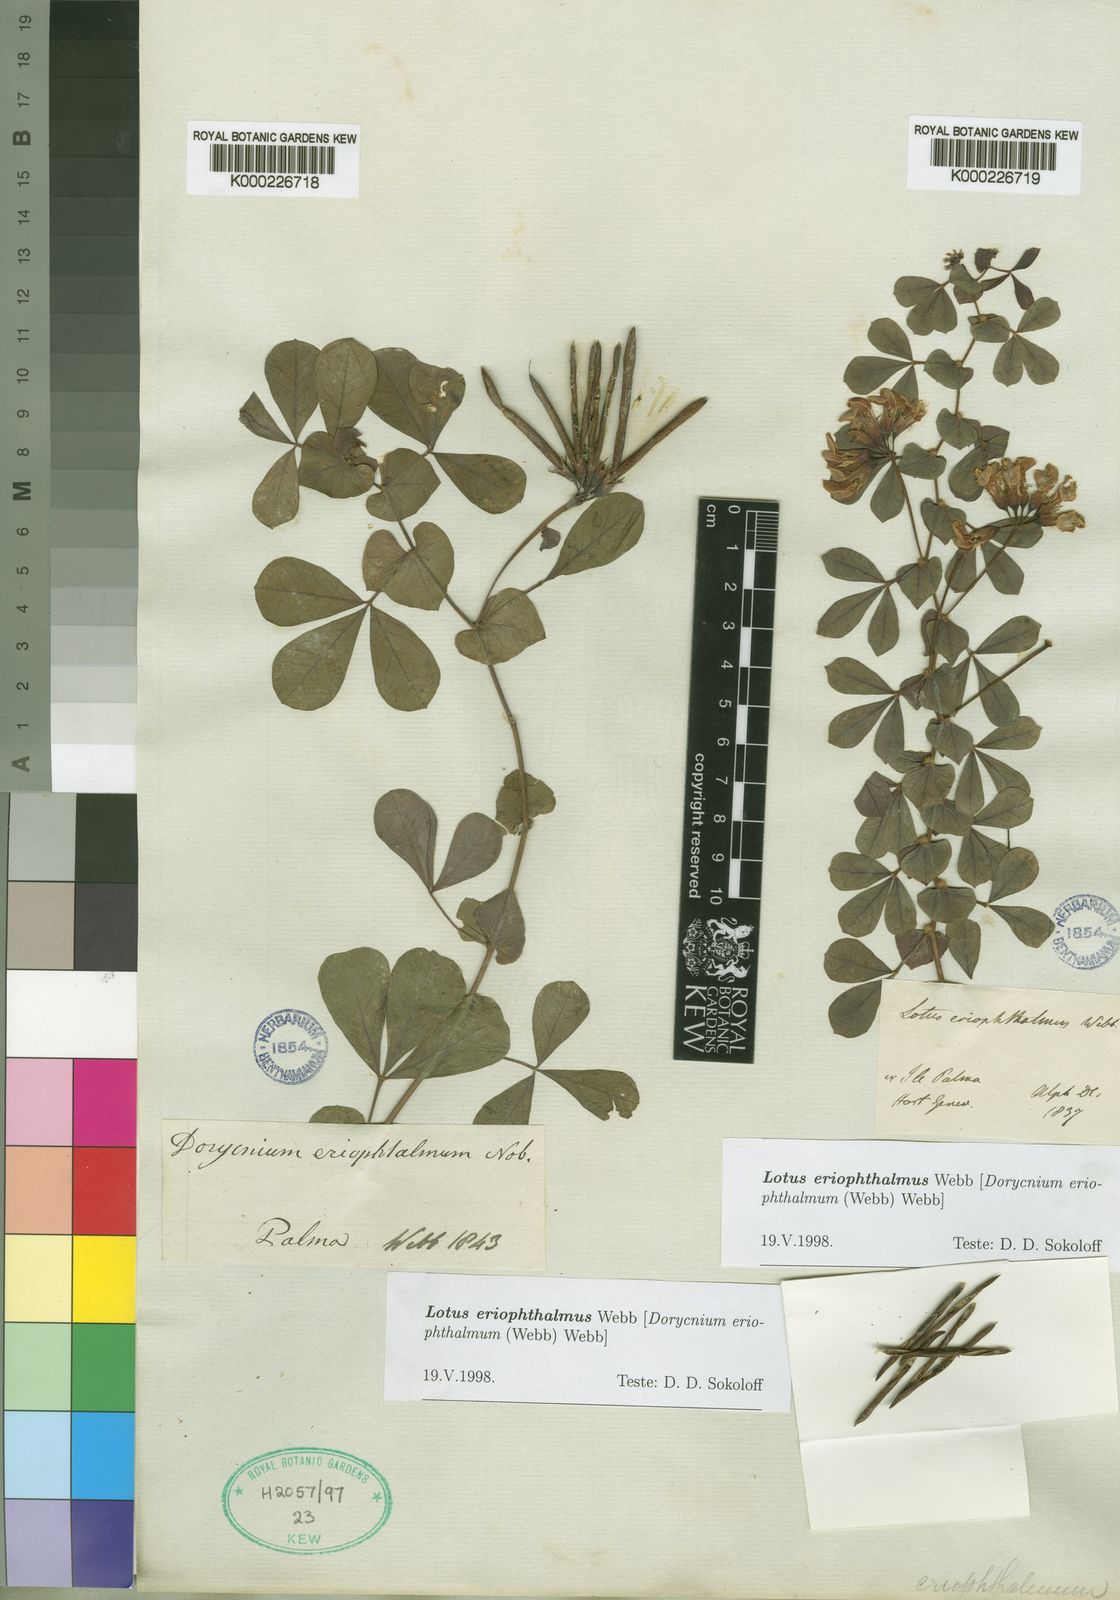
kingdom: Plantae
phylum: Tracheophyta
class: Magnoliopsida
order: Fabales
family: Fabaceae
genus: Lotus
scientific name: Lotus eriophthalmus
